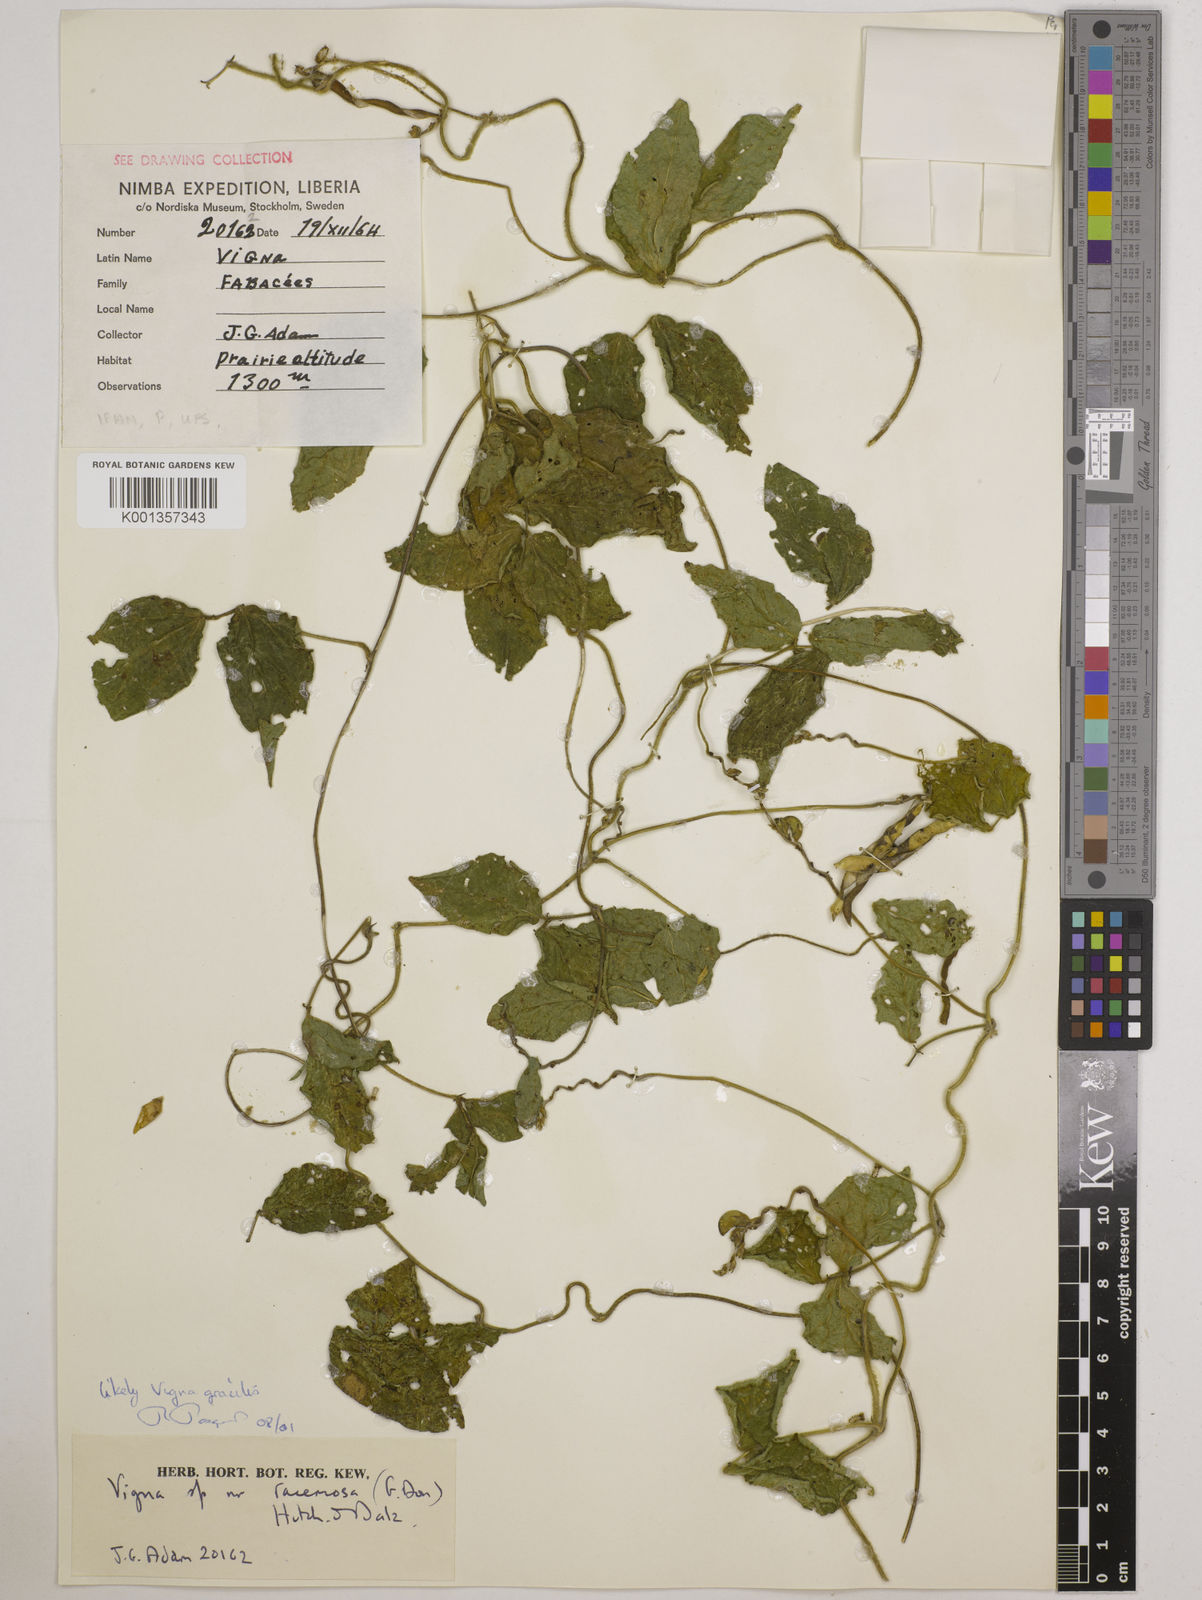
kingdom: Plantae
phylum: Tracheophyta
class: Magnoliopsida
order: Fabales
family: Fabaceae
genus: Vigna
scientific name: Vigna gracilis
